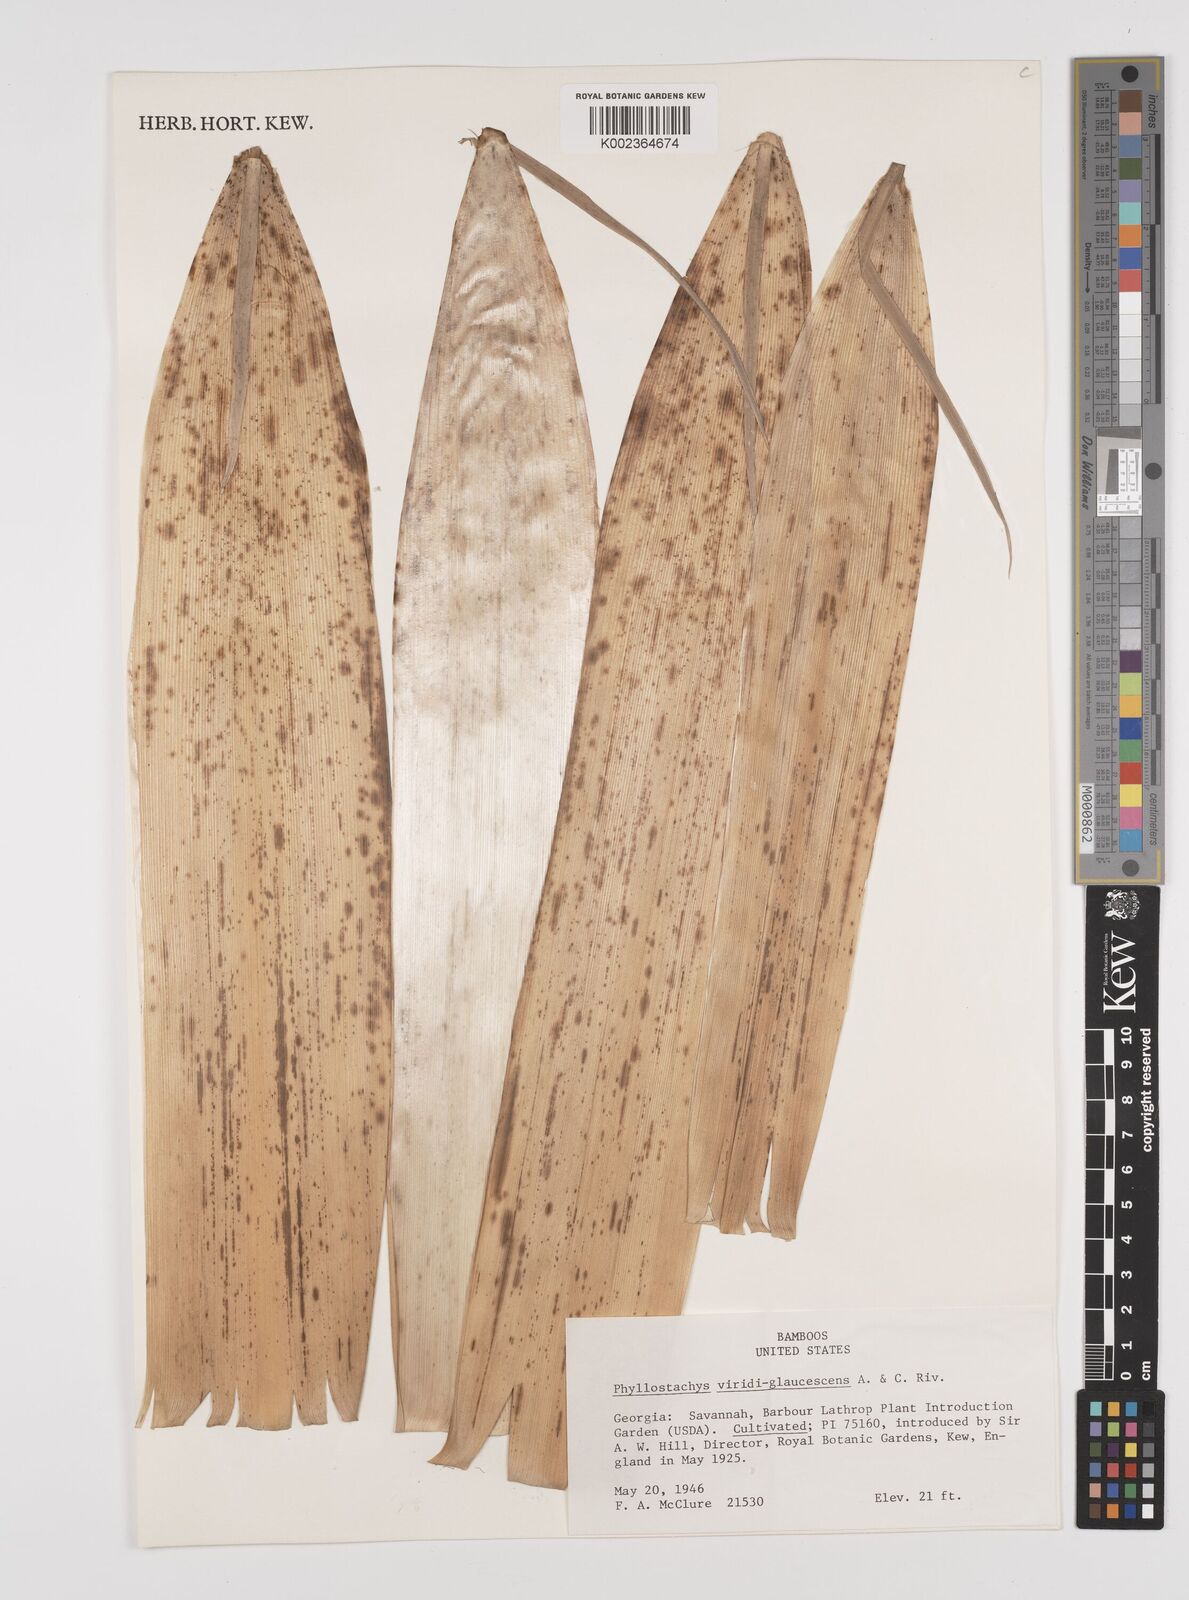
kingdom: Plantae
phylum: Tracheophyta
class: Liliopsida
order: Poales
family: Poaceae
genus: Phyllostachys
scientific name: Phyllostachys viridiglaucescens
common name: Greenwax golden bamboo
